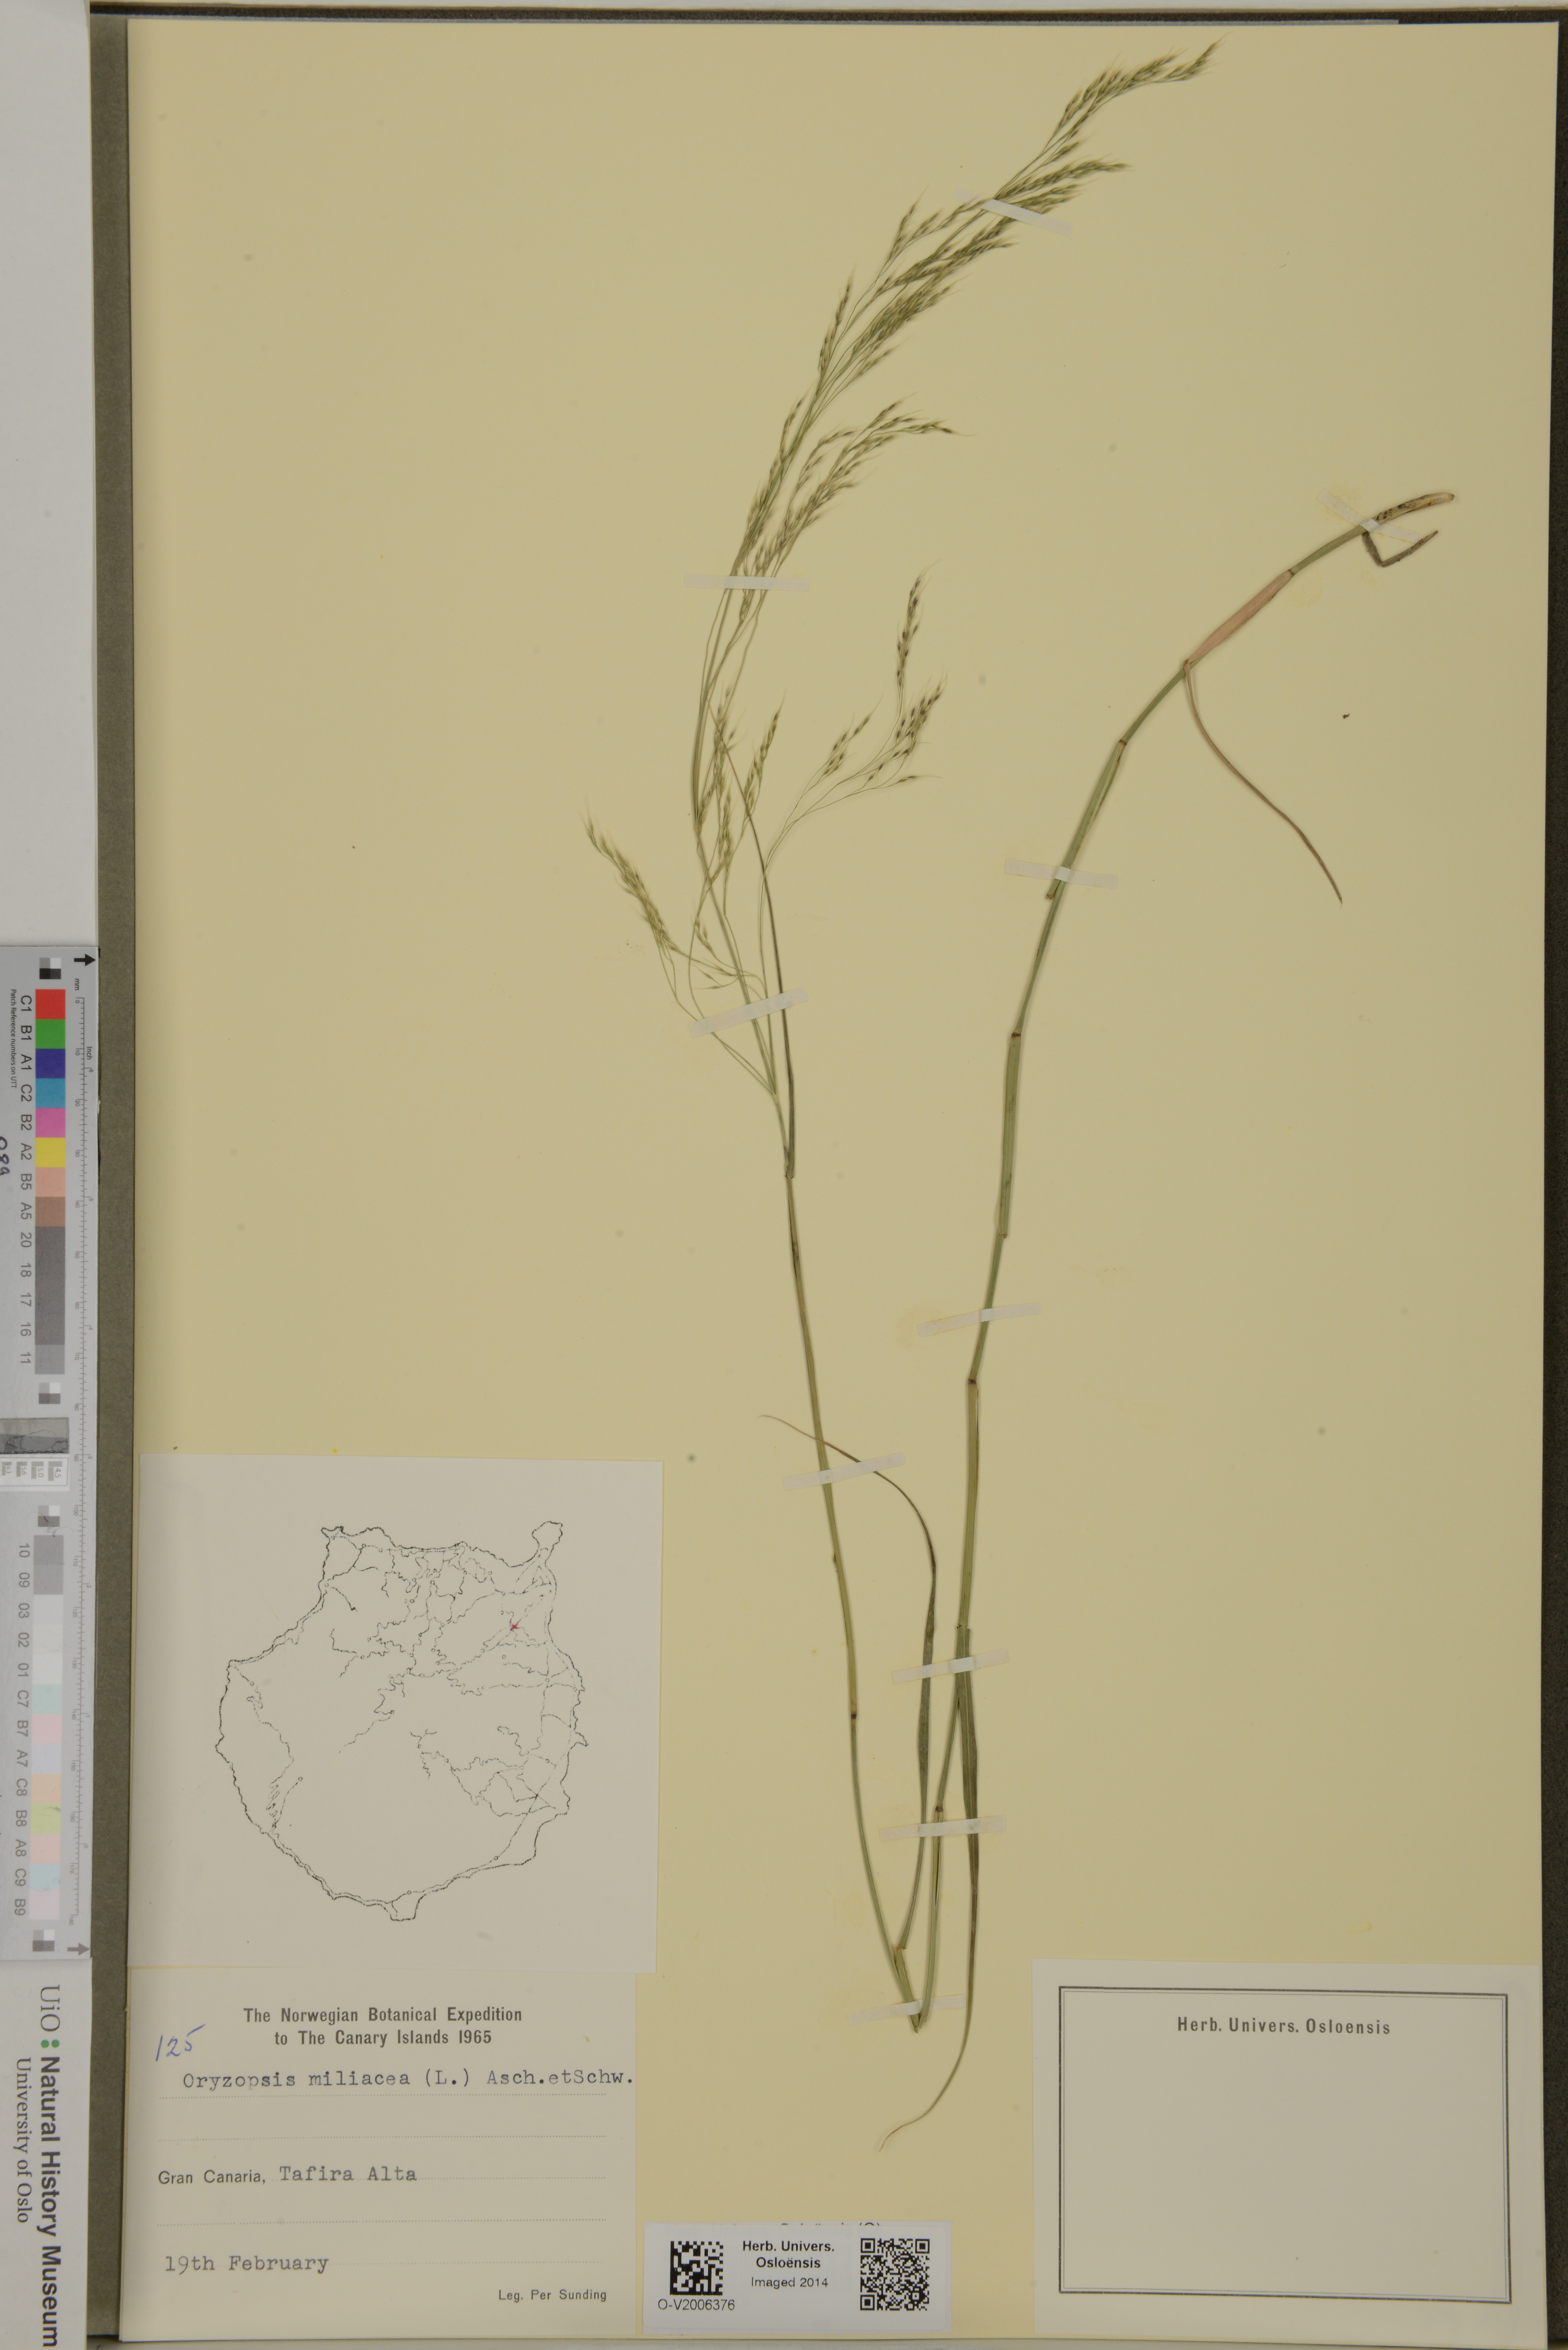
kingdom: Plantae
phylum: Tracheophyta
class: Liliopsida
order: Poales
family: Poaceae
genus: Oloptum
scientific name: Oloptum miliaceum
